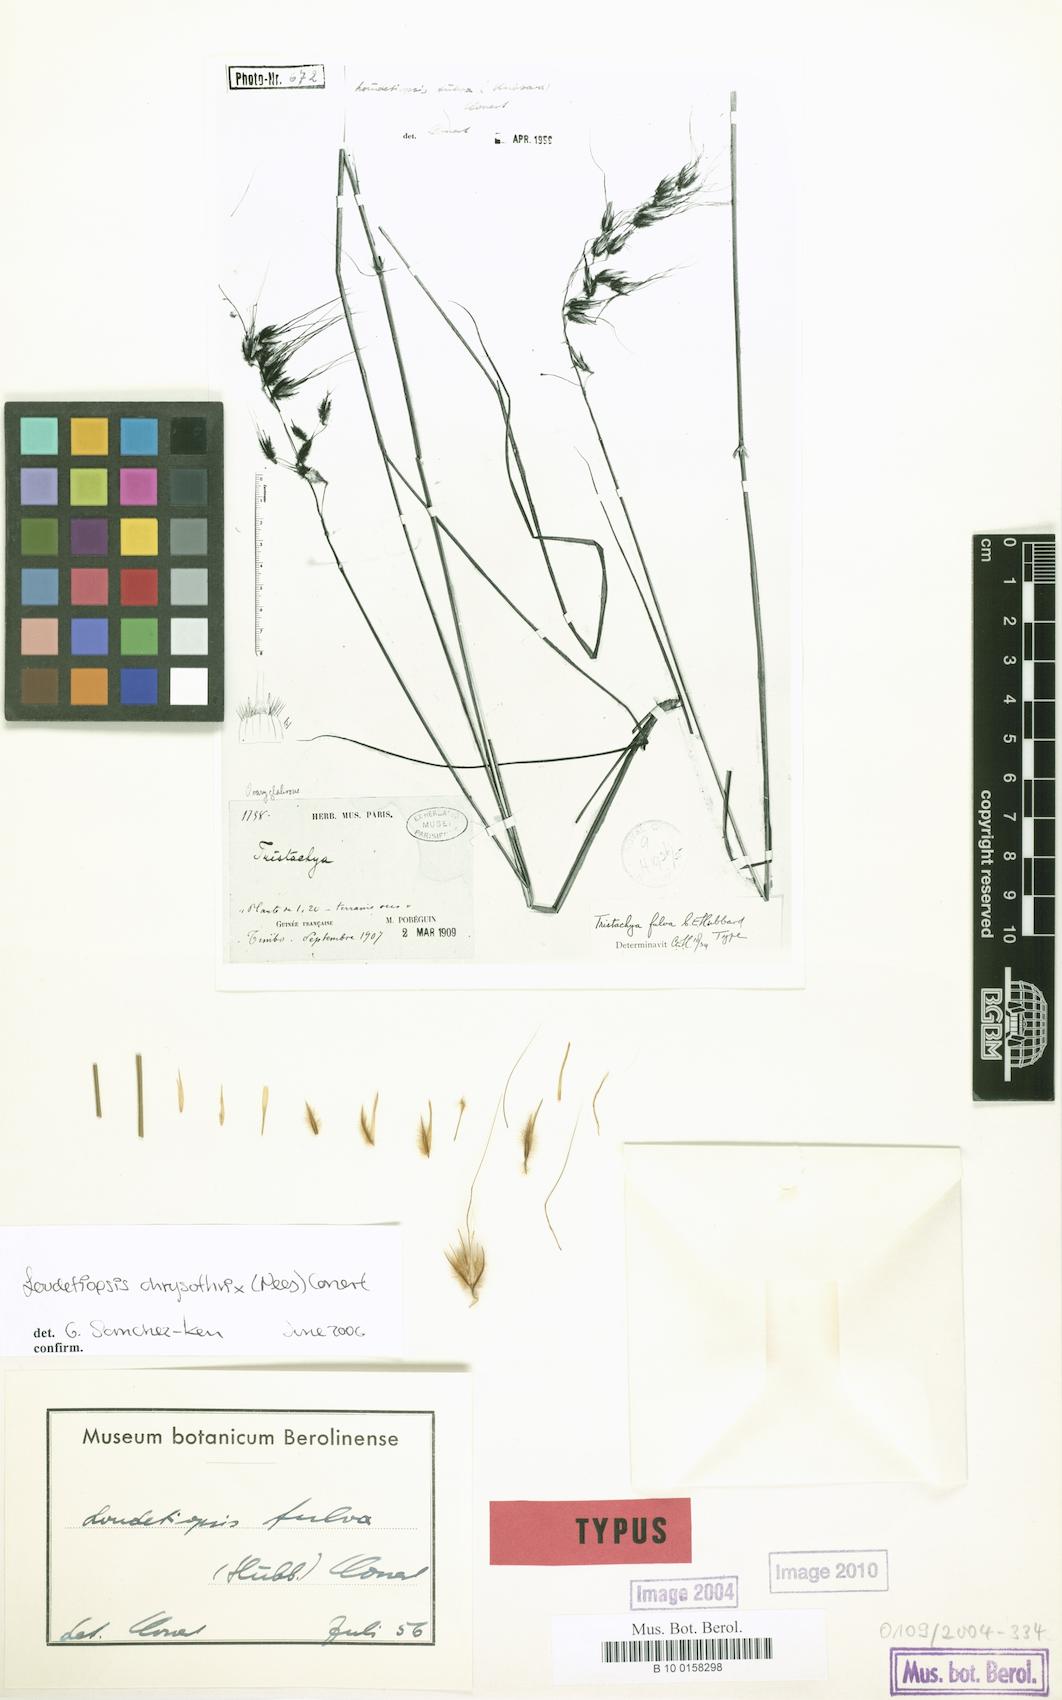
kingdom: Plantae
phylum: Tracheophyta
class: Liliopsida
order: Poales
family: Poaceae
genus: Loudetiopsis
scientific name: Loudetiopsis chrysothrix
